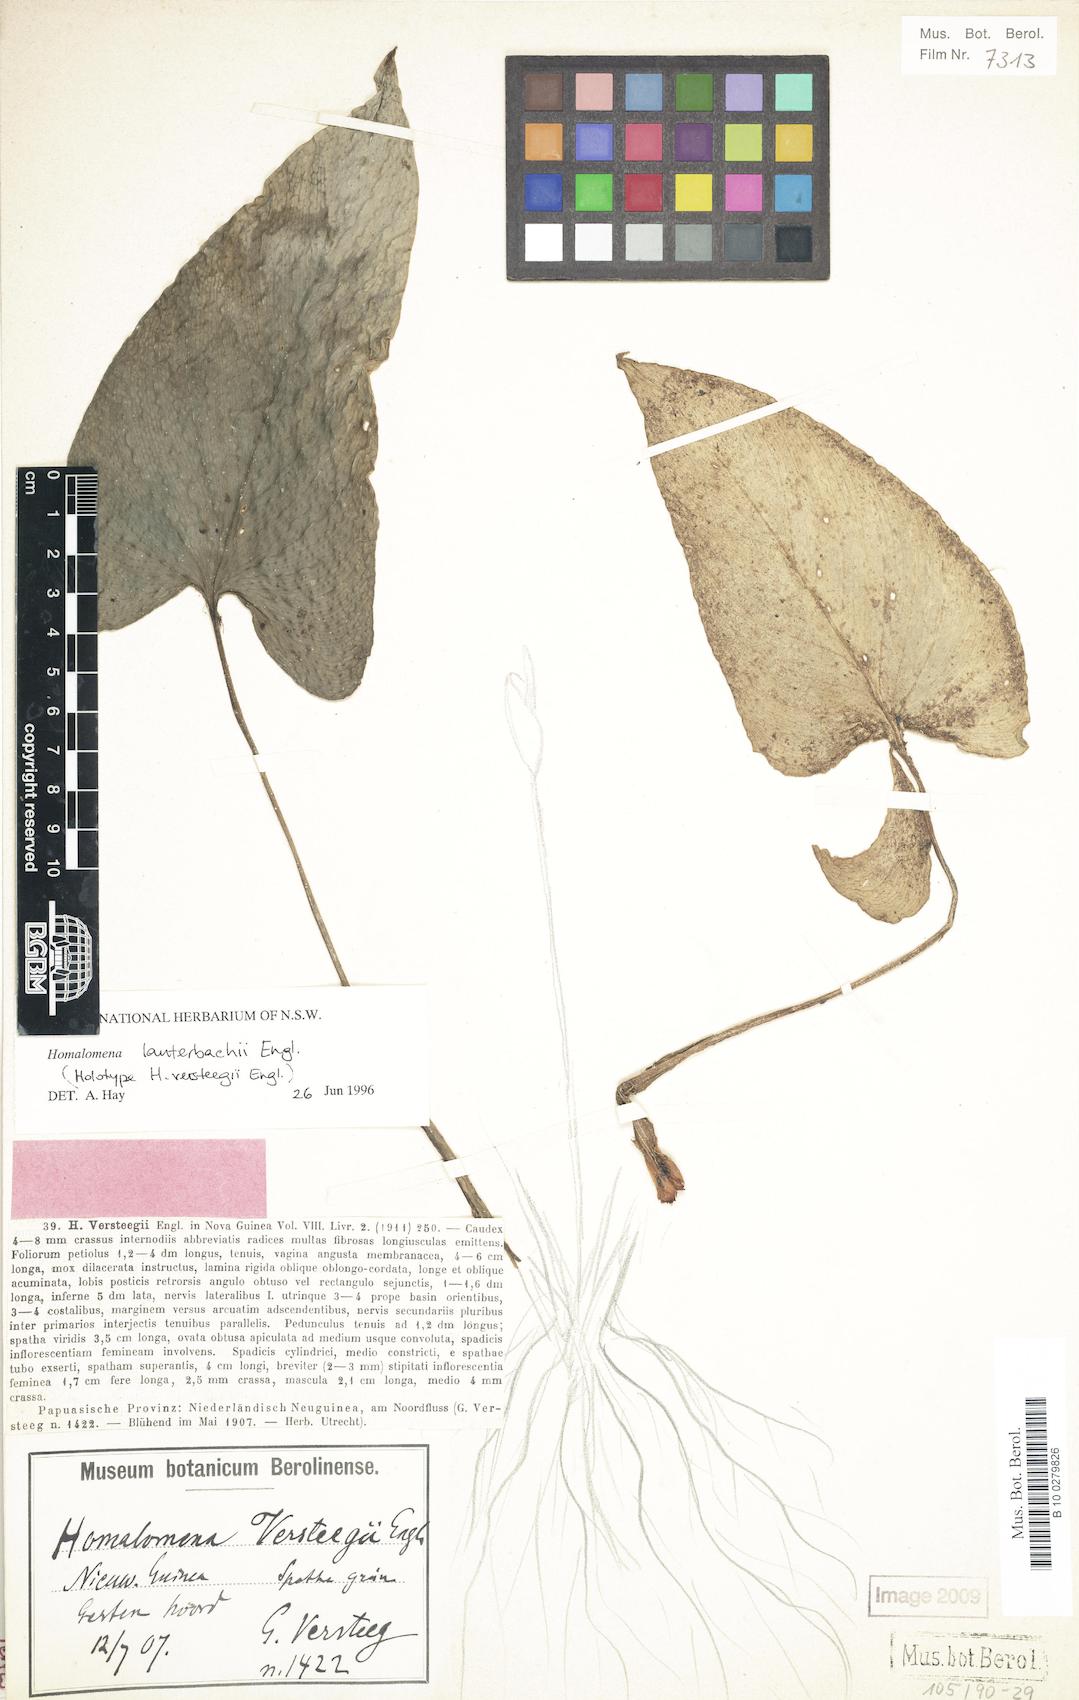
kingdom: Plantae
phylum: Tracheophyta
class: Liliopsida
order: Alismatales
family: Araceae
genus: Homalomena
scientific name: Homalomena lauterbachii
